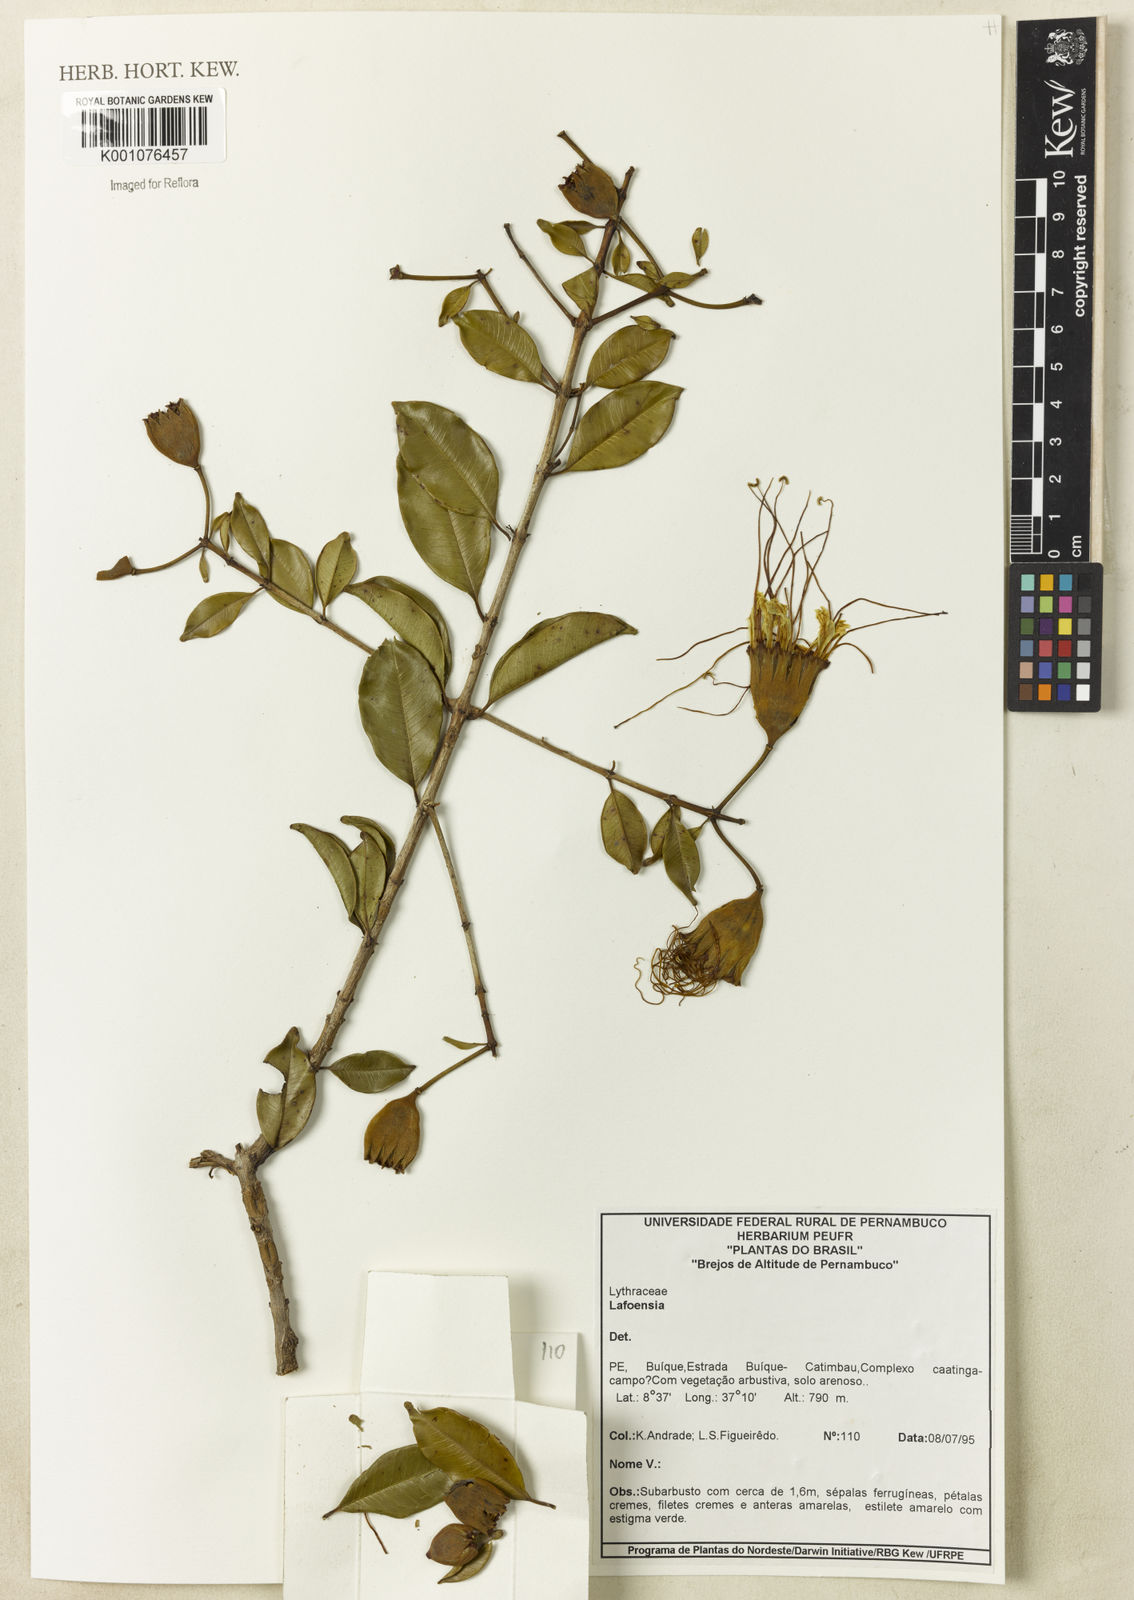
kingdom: Plantae
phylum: Tracheophyta
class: Magnoliopsida
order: Myrtales
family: Lythraceae
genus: Lafoensia
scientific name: Lafoensia
